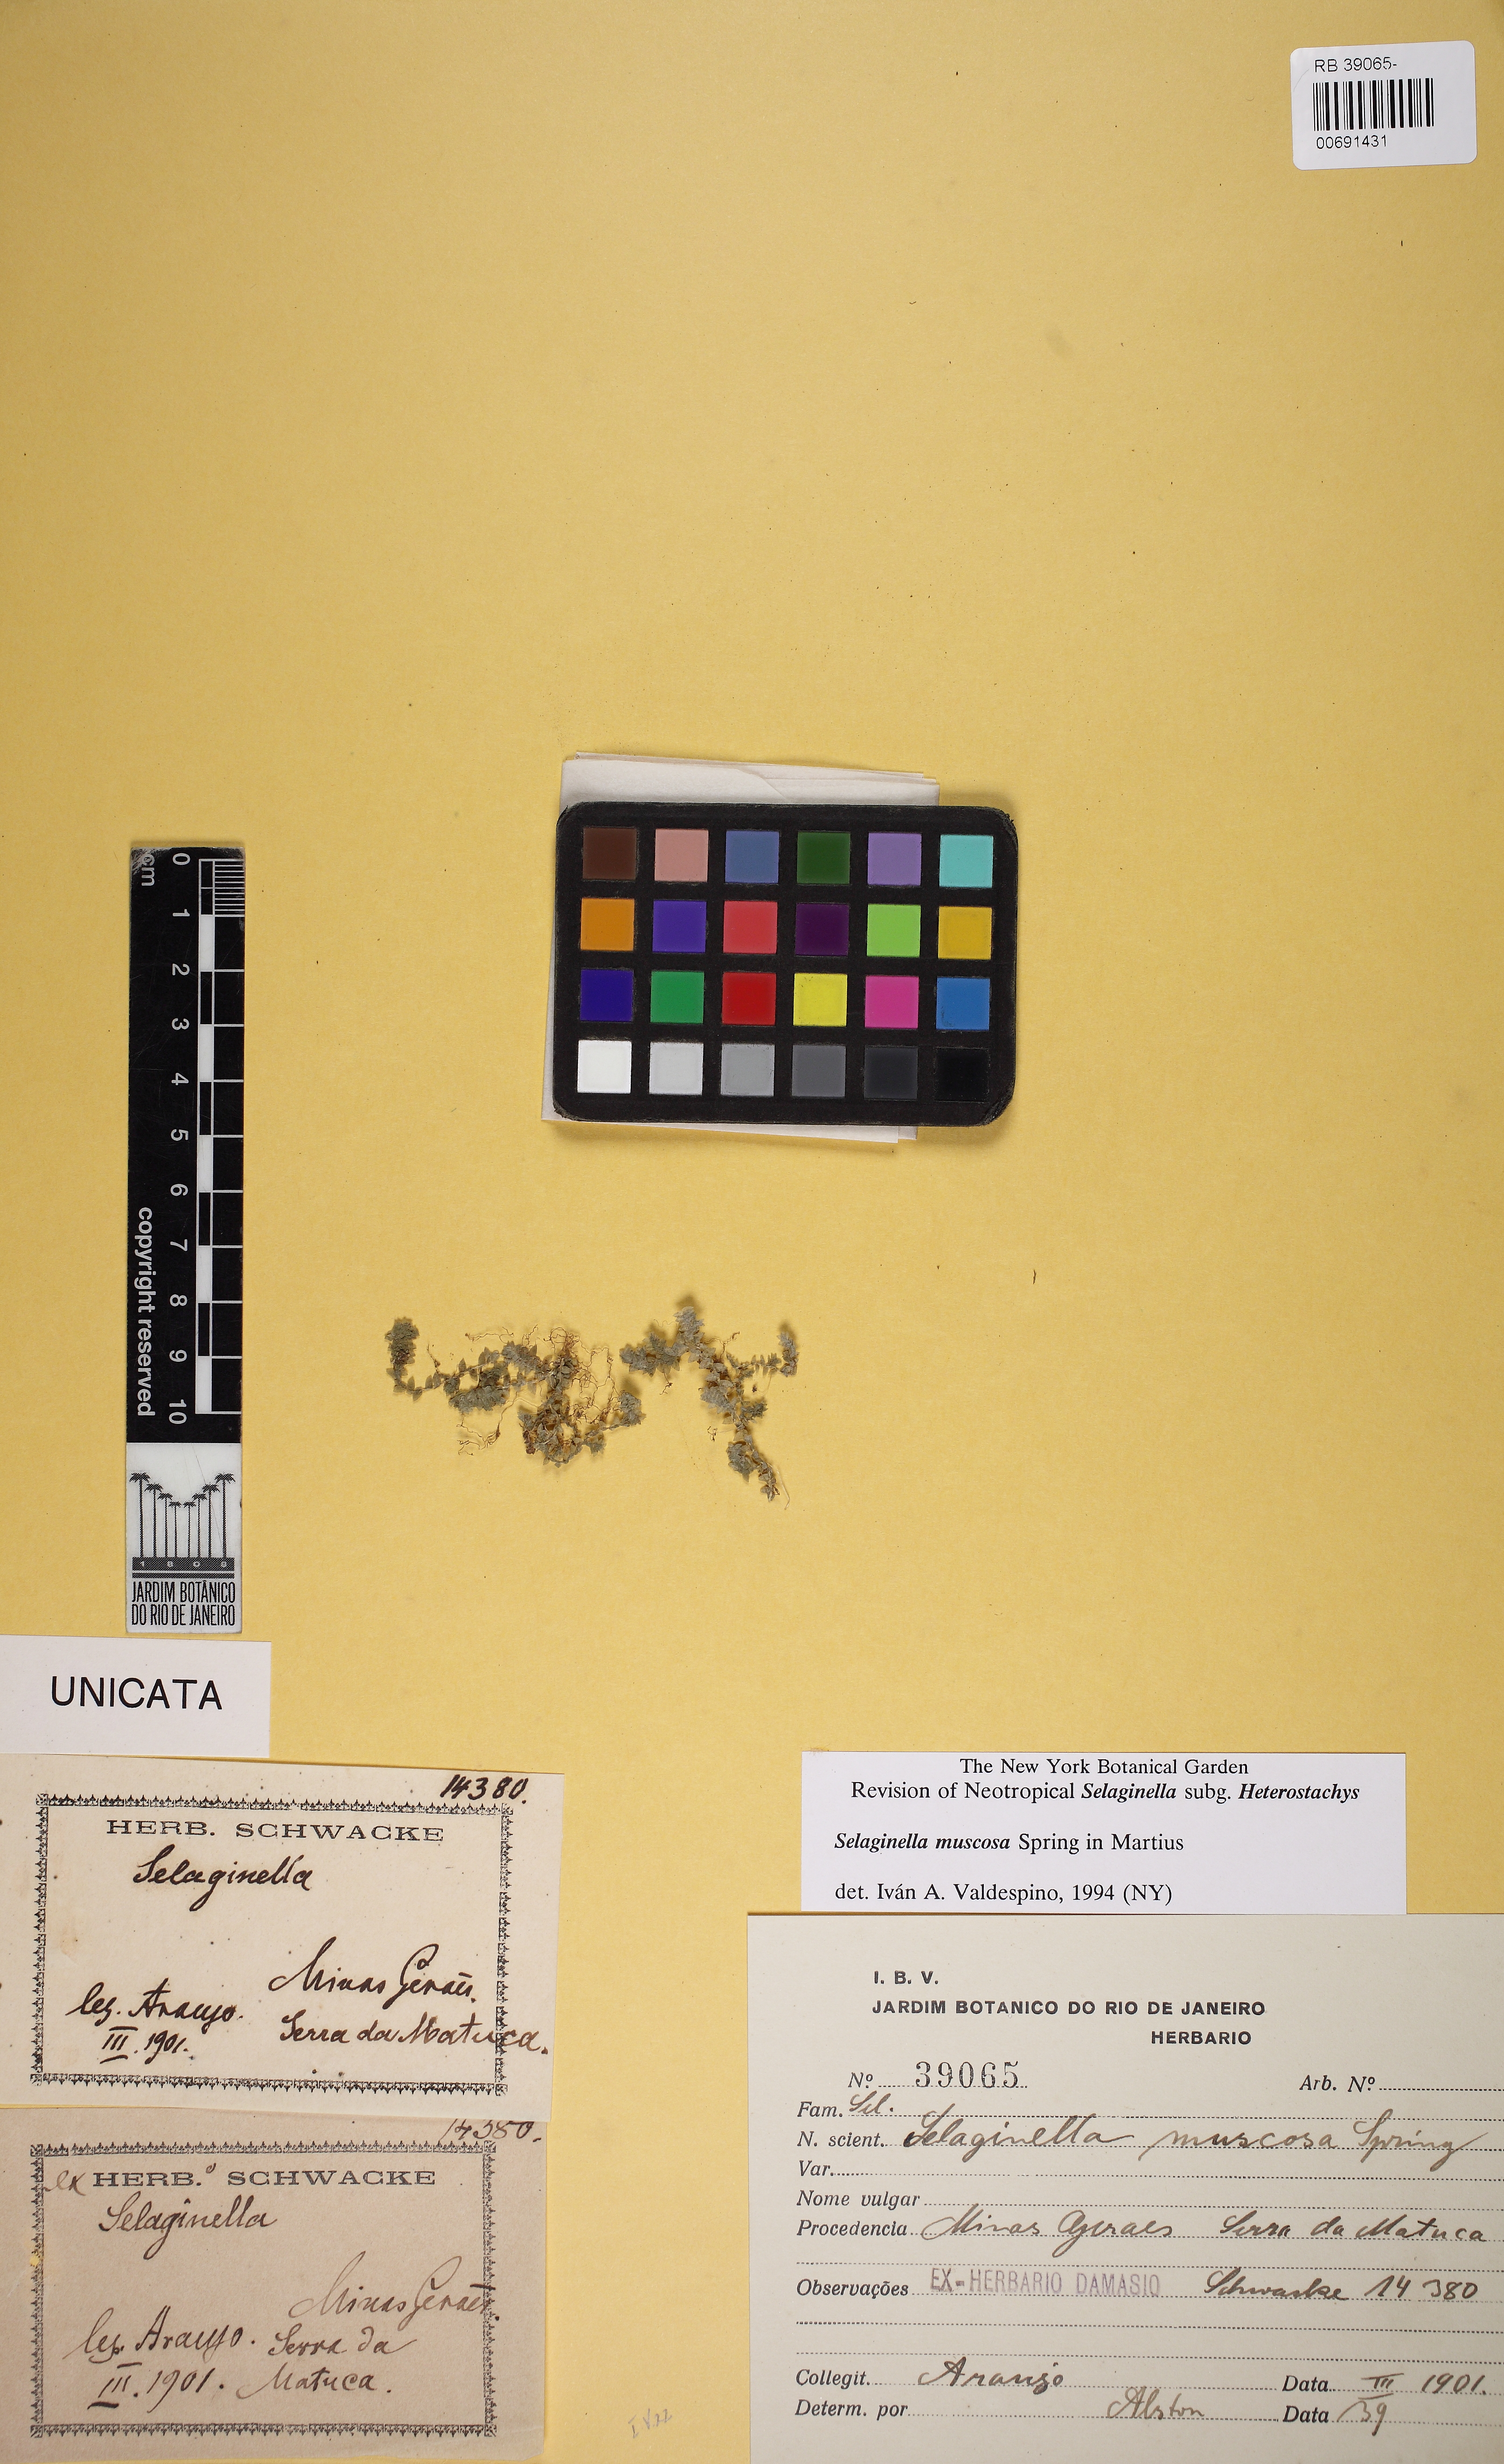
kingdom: Plantae
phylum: Tracheophyta
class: Lycopodiopsida
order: Selaginellales
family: Selaginellaceae
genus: Selaginella
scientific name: Selaginella muscosa
